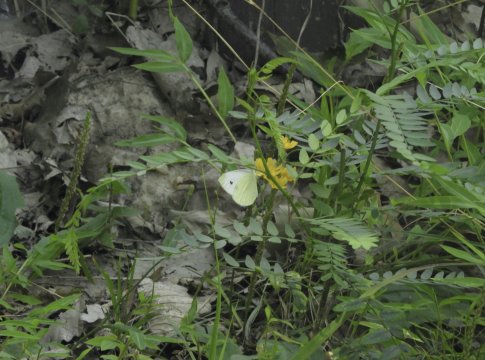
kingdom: Animalia
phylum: Arthropoda
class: Insecta
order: Lepidoptera
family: Pieridae
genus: Pieris
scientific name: Pieris rapae
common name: Cabbage White
